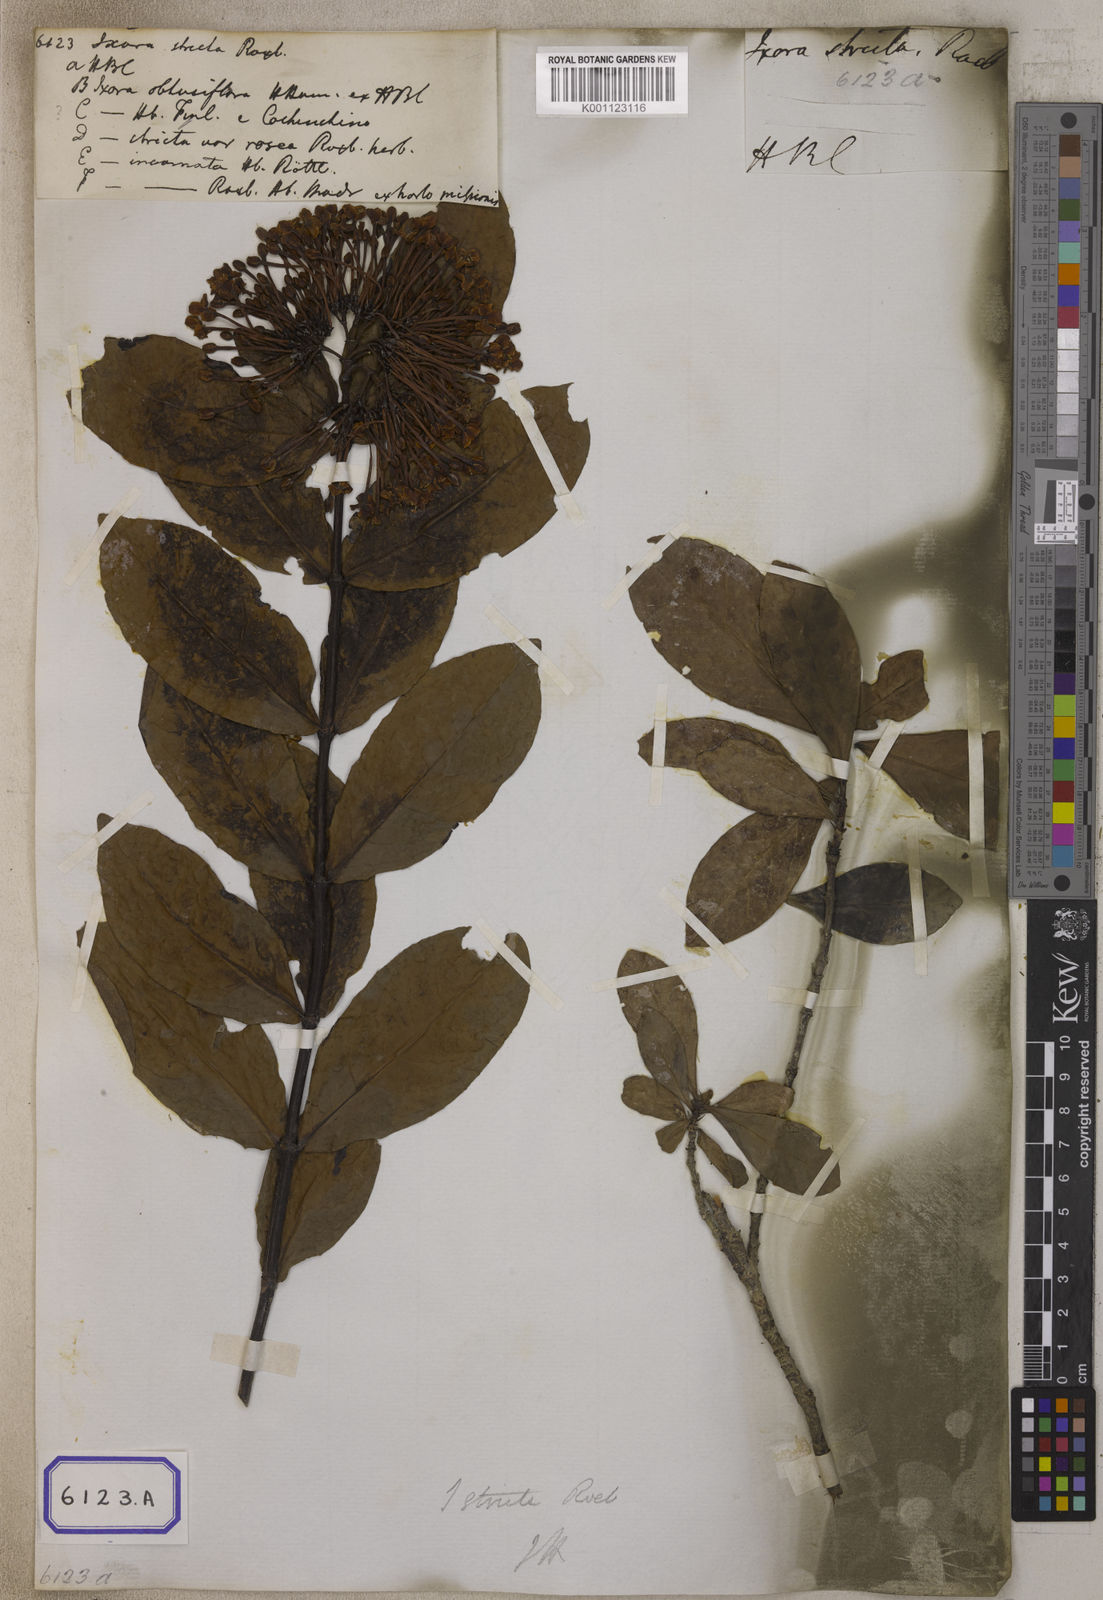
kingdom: Plantae
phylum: Tracheophyta
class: Magnoliopsida
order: Gentianales
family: Rubiaceae
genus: Ixora
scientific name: Ixora
